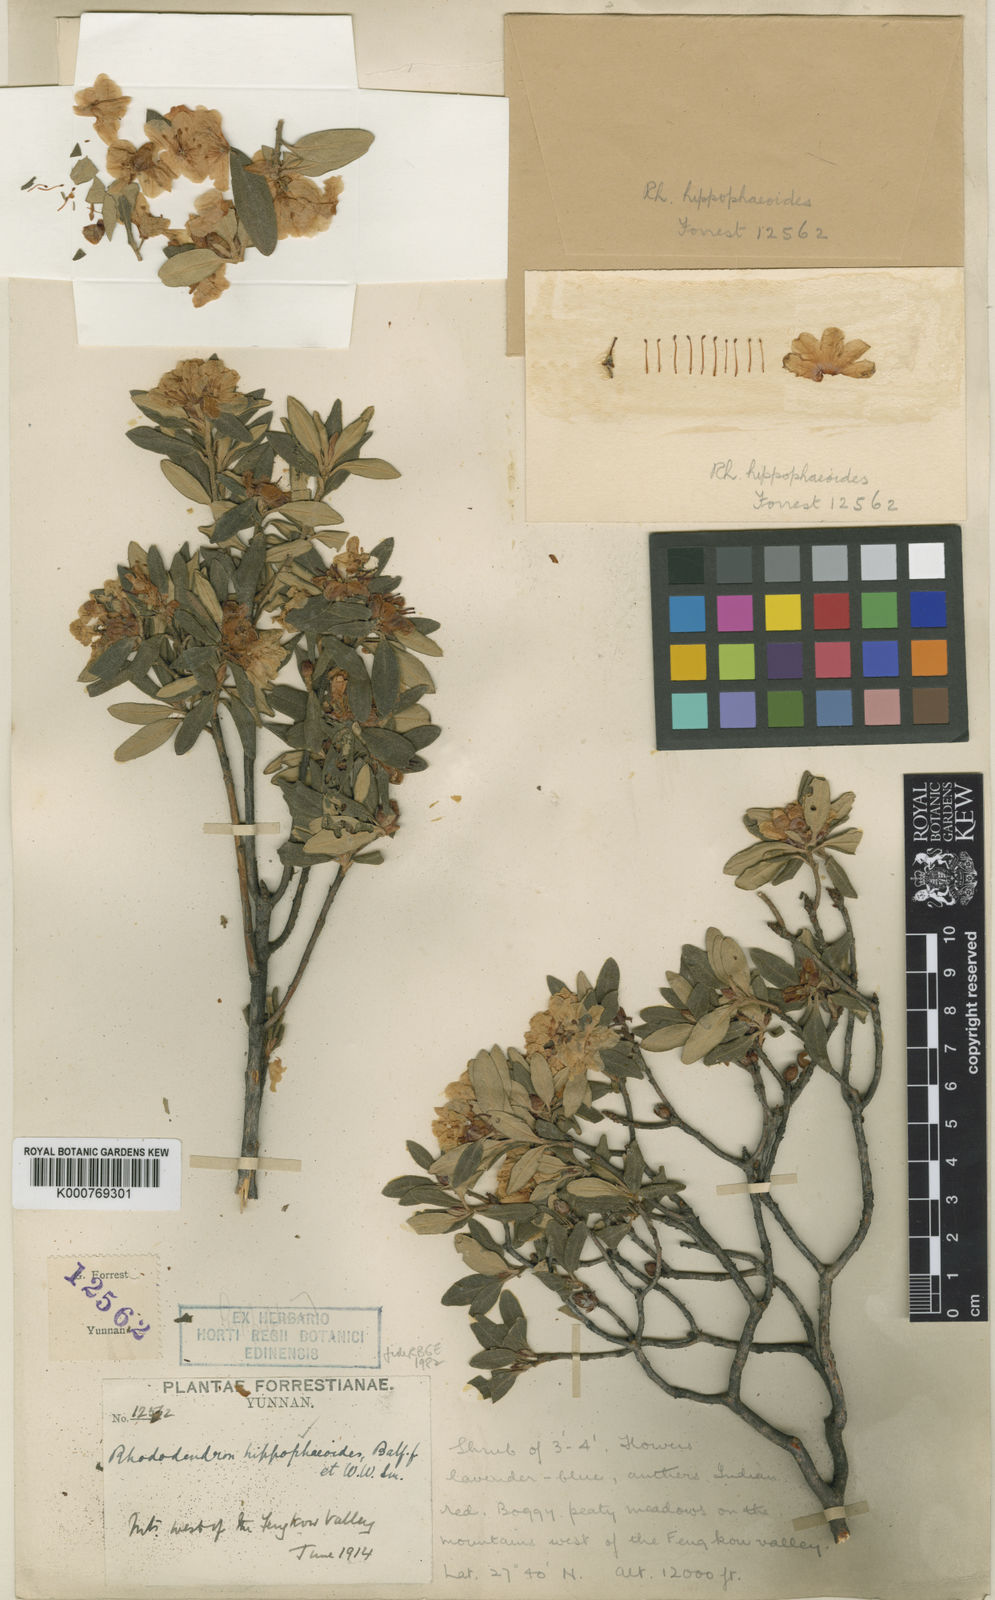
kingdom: Plantae
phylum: Tracheophyta
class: Magnoliopsida
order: Ericales
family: Ericaceae
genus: Rhododendron
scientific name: Rhododendron hippophaeoides
